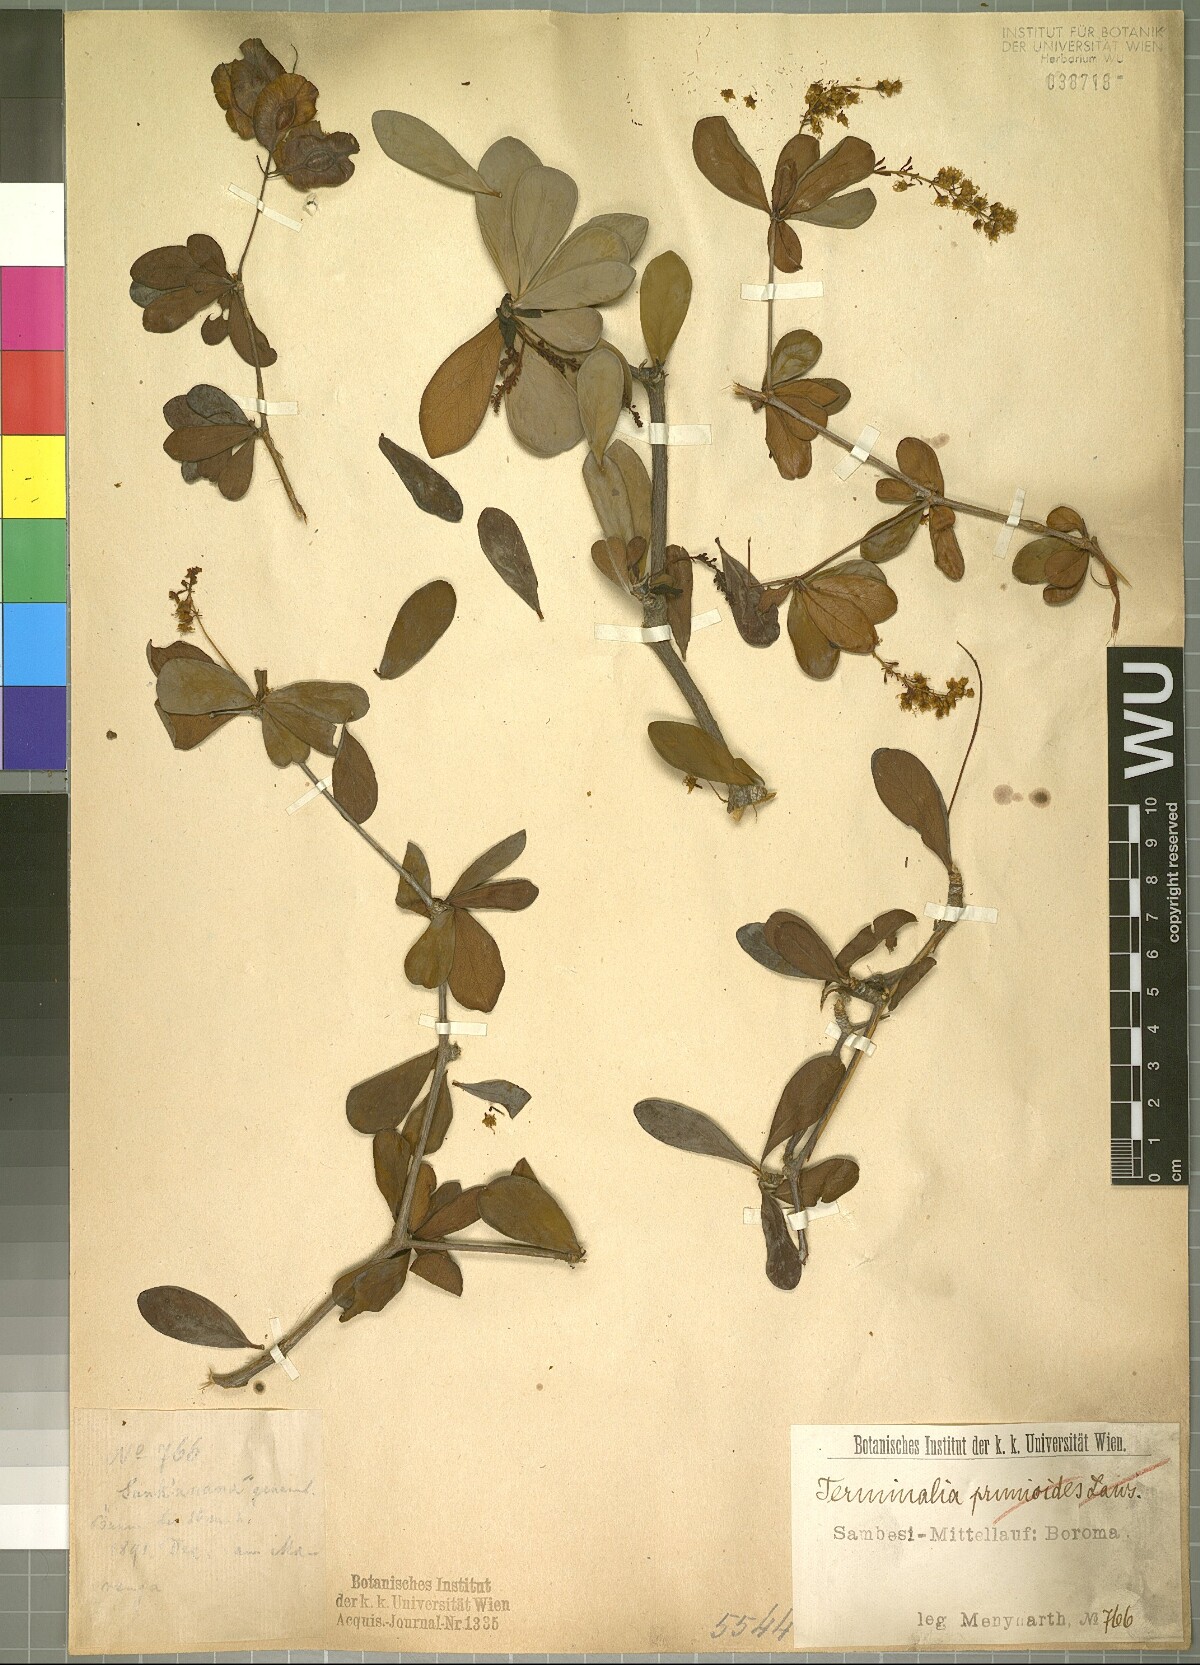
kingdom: Plantae
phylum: Tracheophyta
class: Magnoliopsida
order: Myrtales
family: Combretaceae
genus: Terminalia
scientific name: Terminalia stuhlmannii
